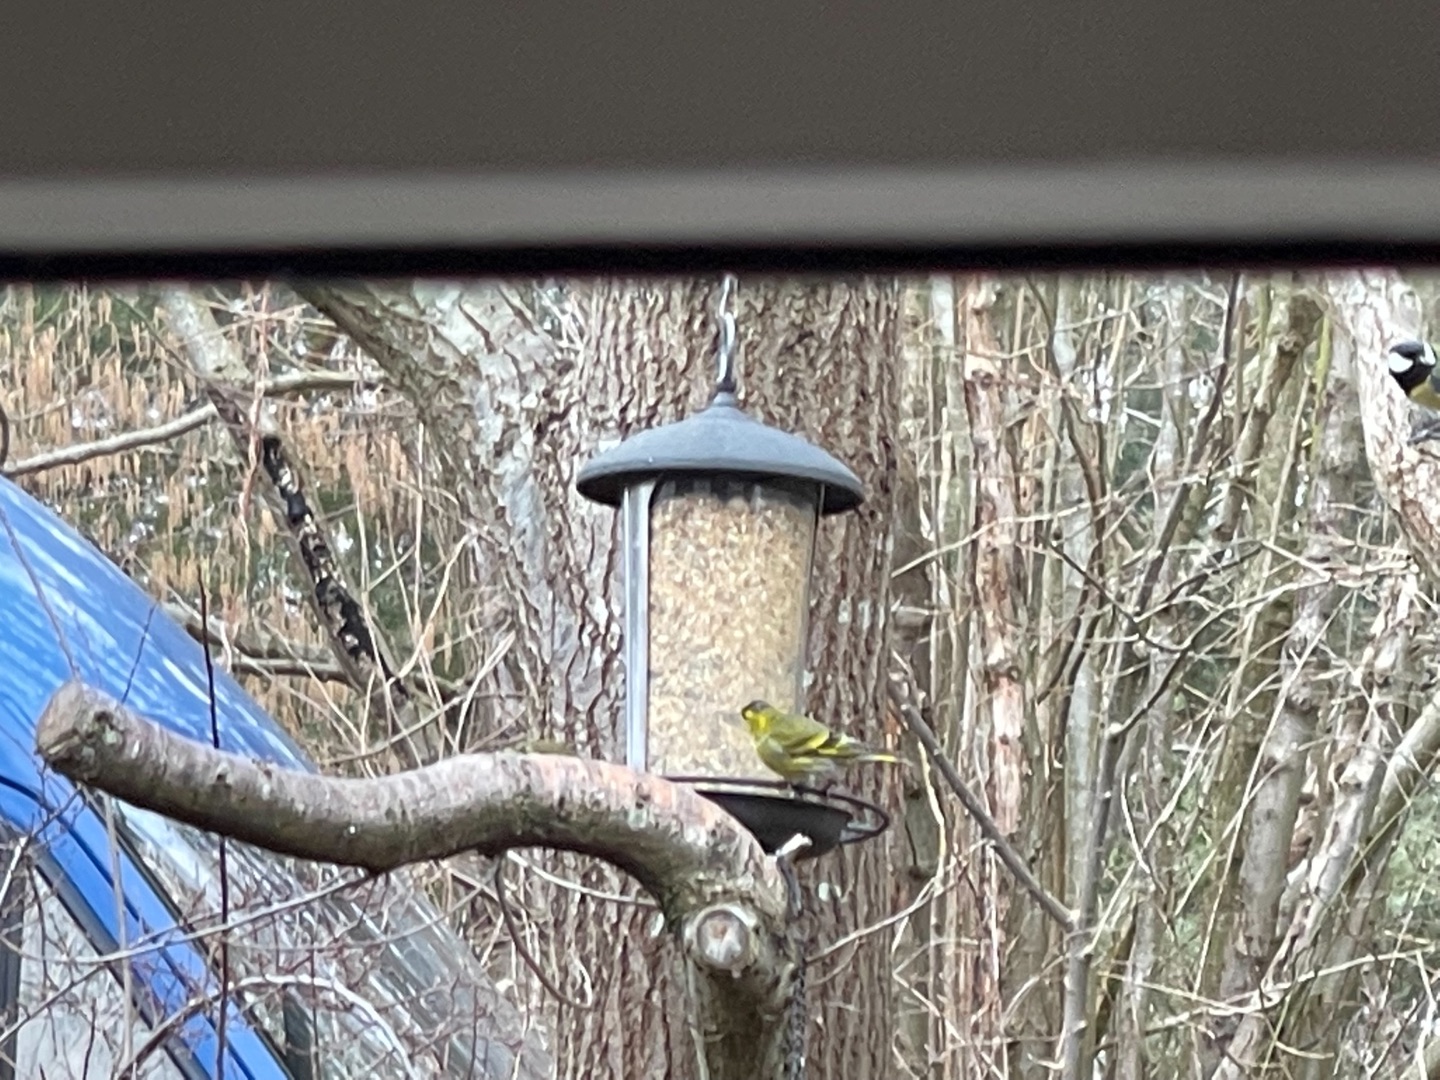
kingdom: Animalia
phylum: Chordata
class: Aves
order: Passeriformes
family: Fringillidae
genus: Spinus
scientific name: Spinus spinus
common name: Grønsisken
